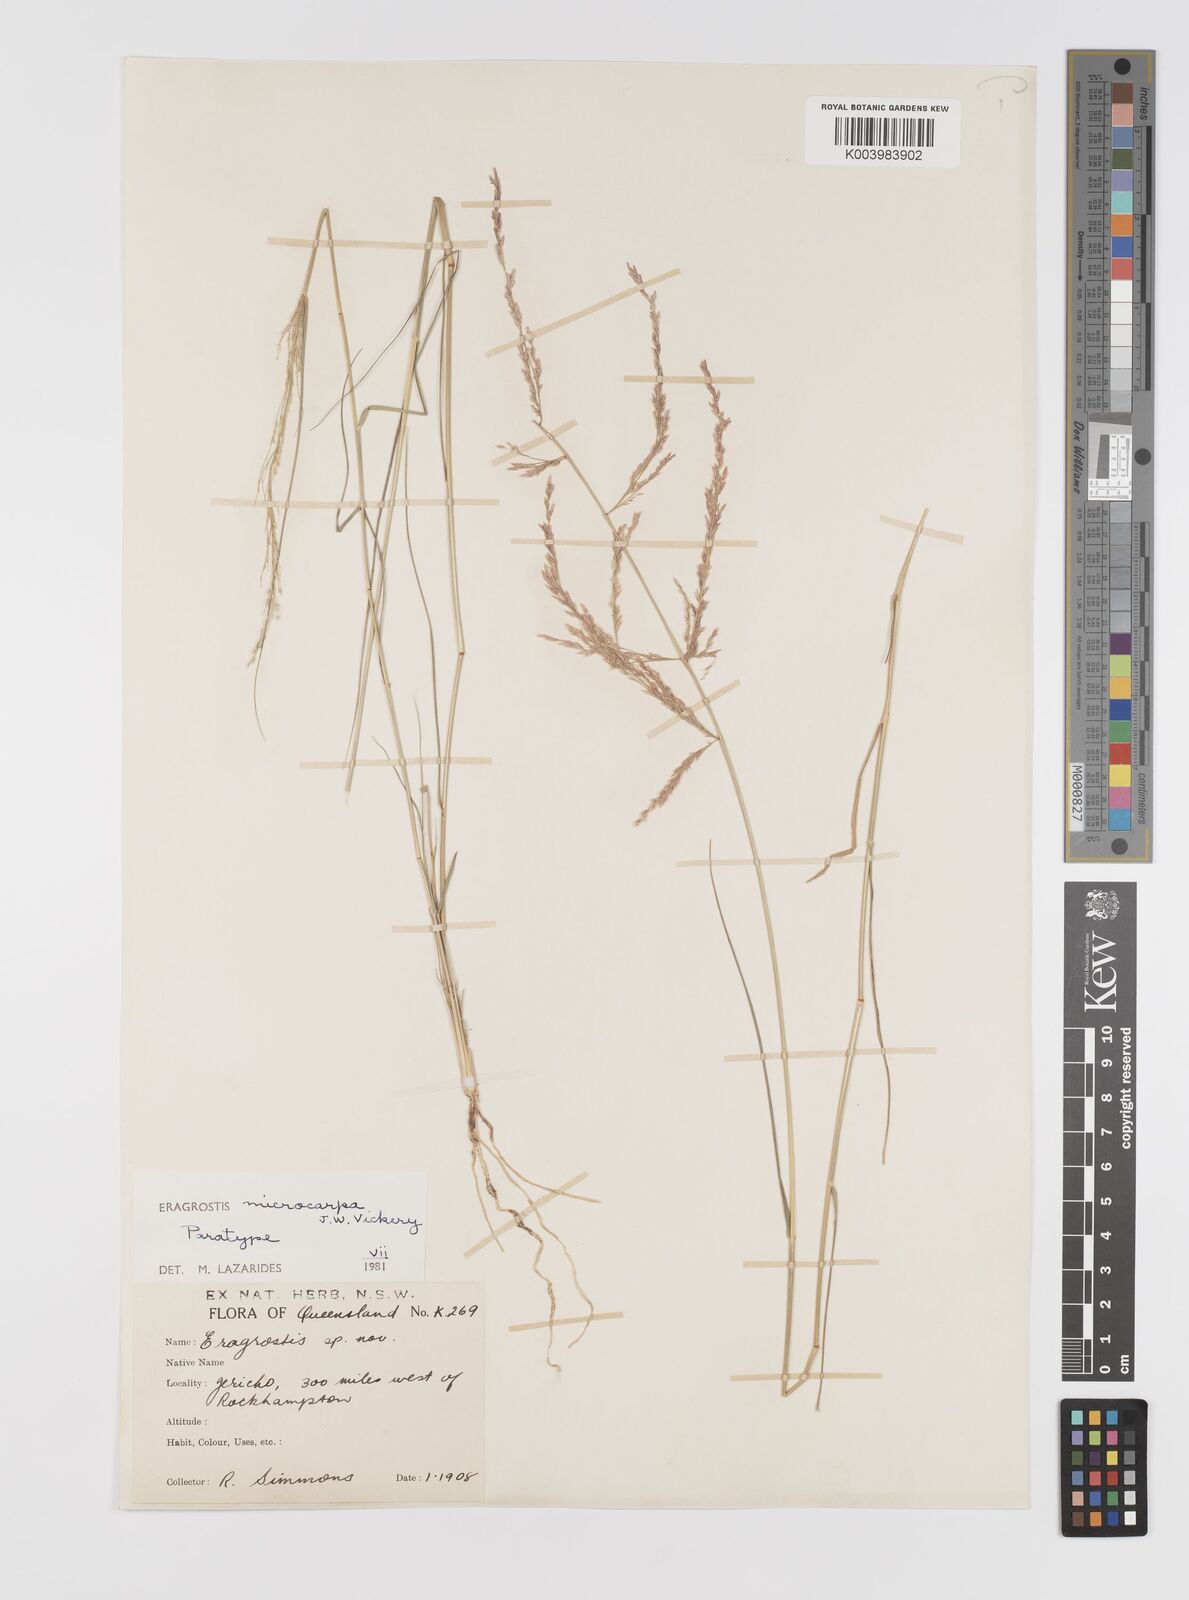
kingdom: Plantae
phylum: Tracheophyta
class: Liliopsida
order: Poales
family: Poaceae
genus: Eragrostis
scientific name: Eragrostis microcarpa
